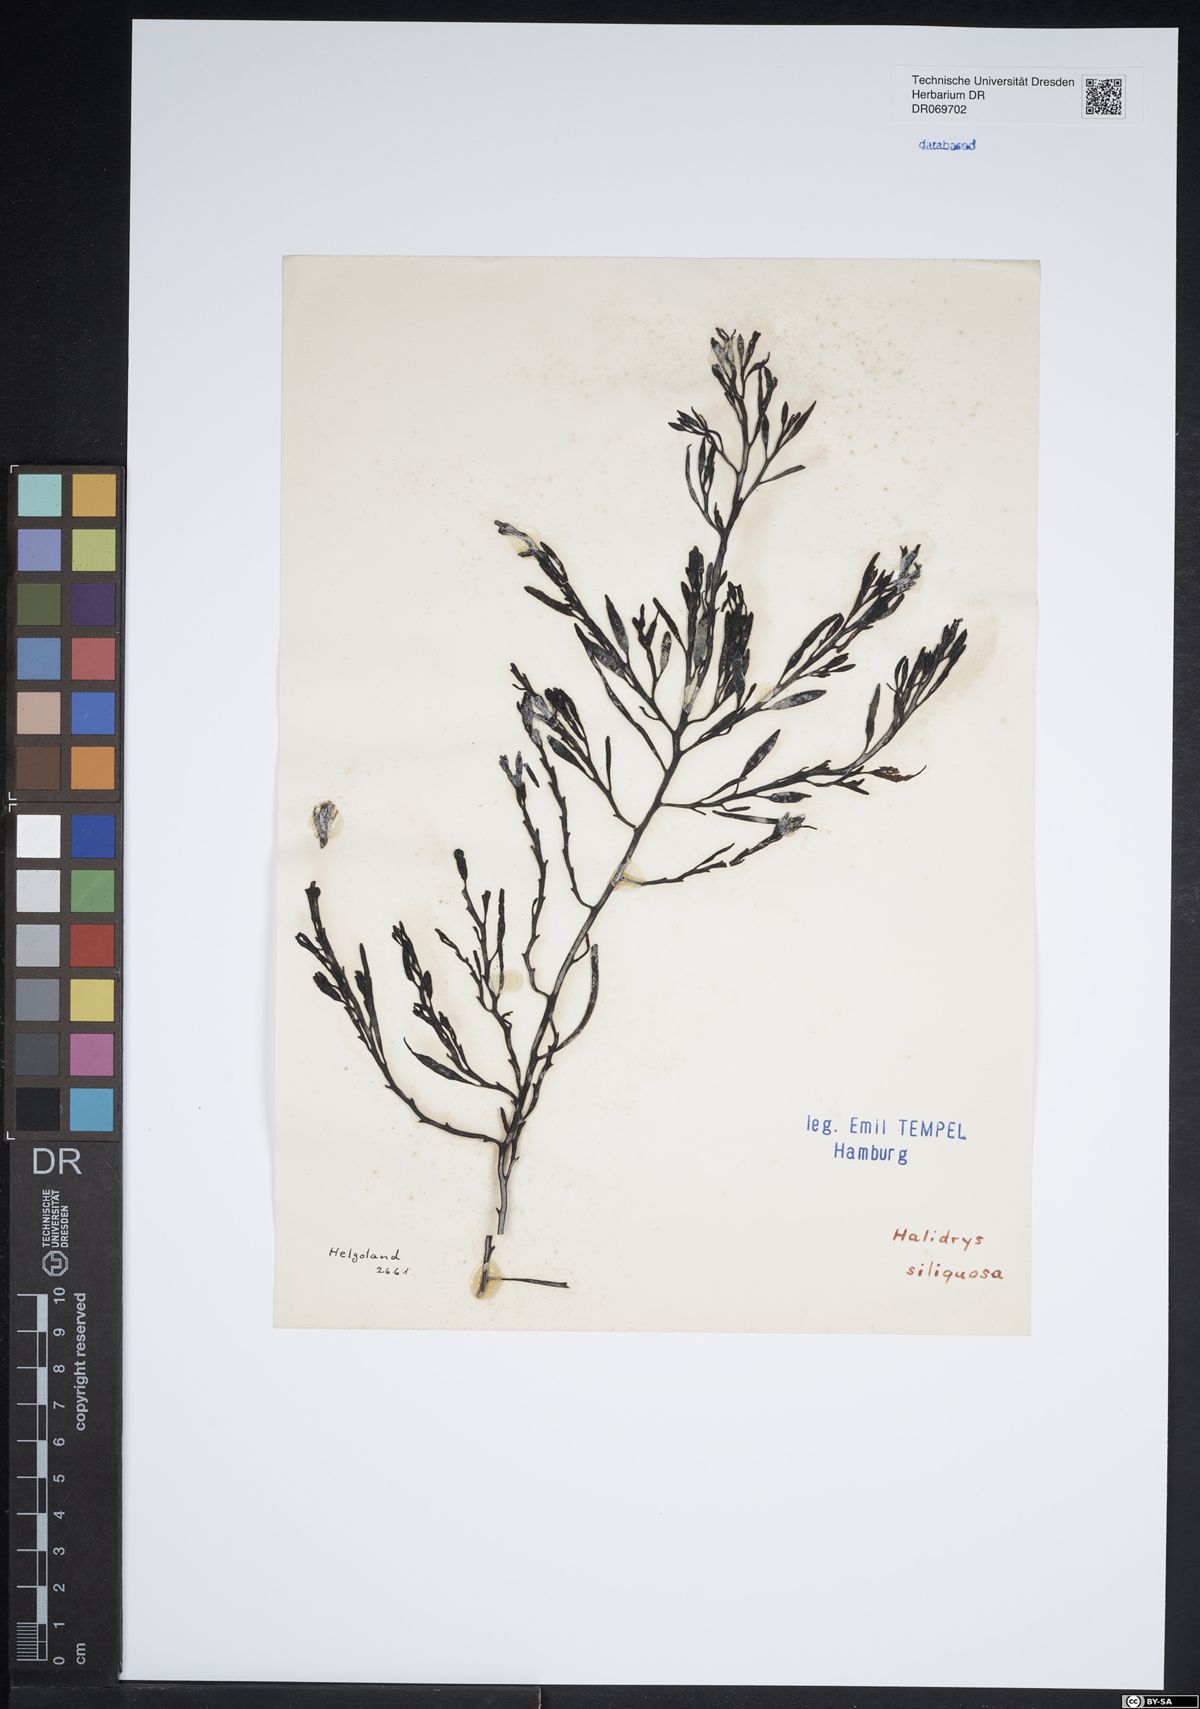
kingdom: Chromista
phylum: Ochrophyta
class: Phaeophyceae
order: Fucales
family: Sargassaceae
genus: Halidrys
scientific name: Halidrys siliquosa
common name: Sea oak
